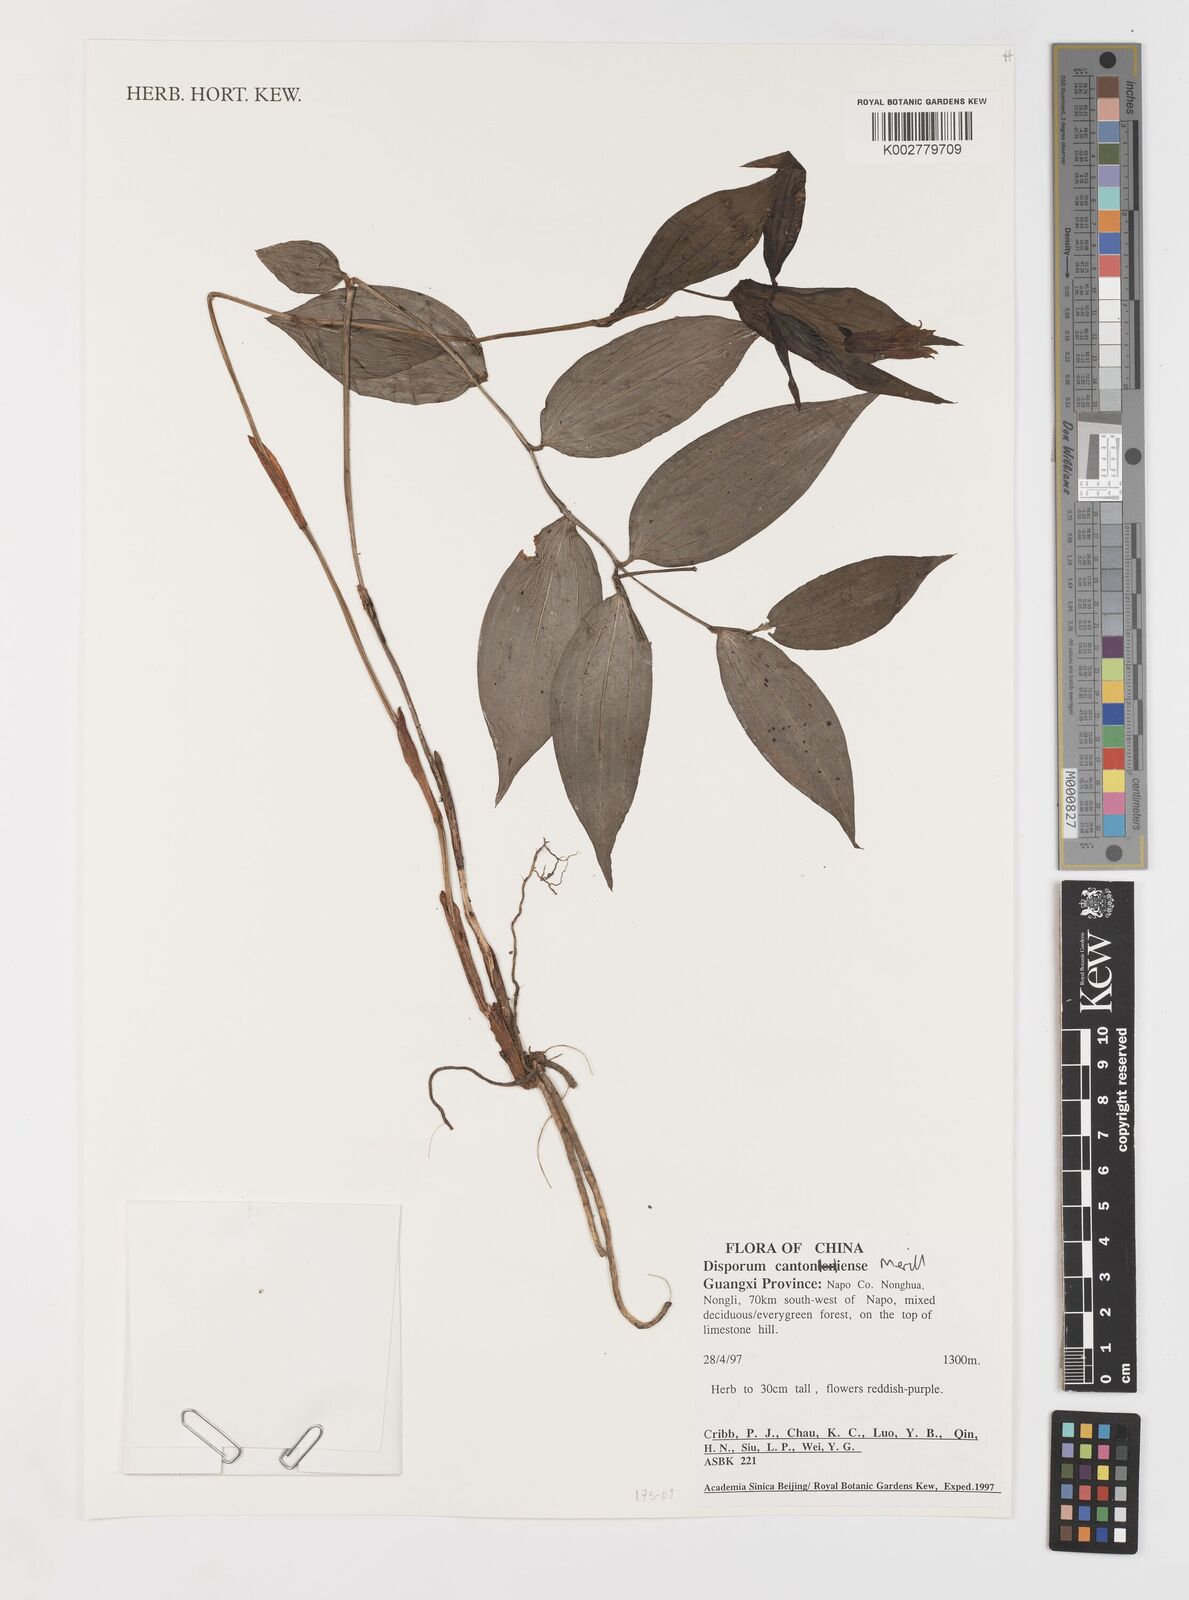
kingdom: Plantae
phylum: Tracheophyta
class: Liliopsida
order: Liliales
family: Colchicaceae
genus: Disporum
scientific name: Disporum cantoniense
